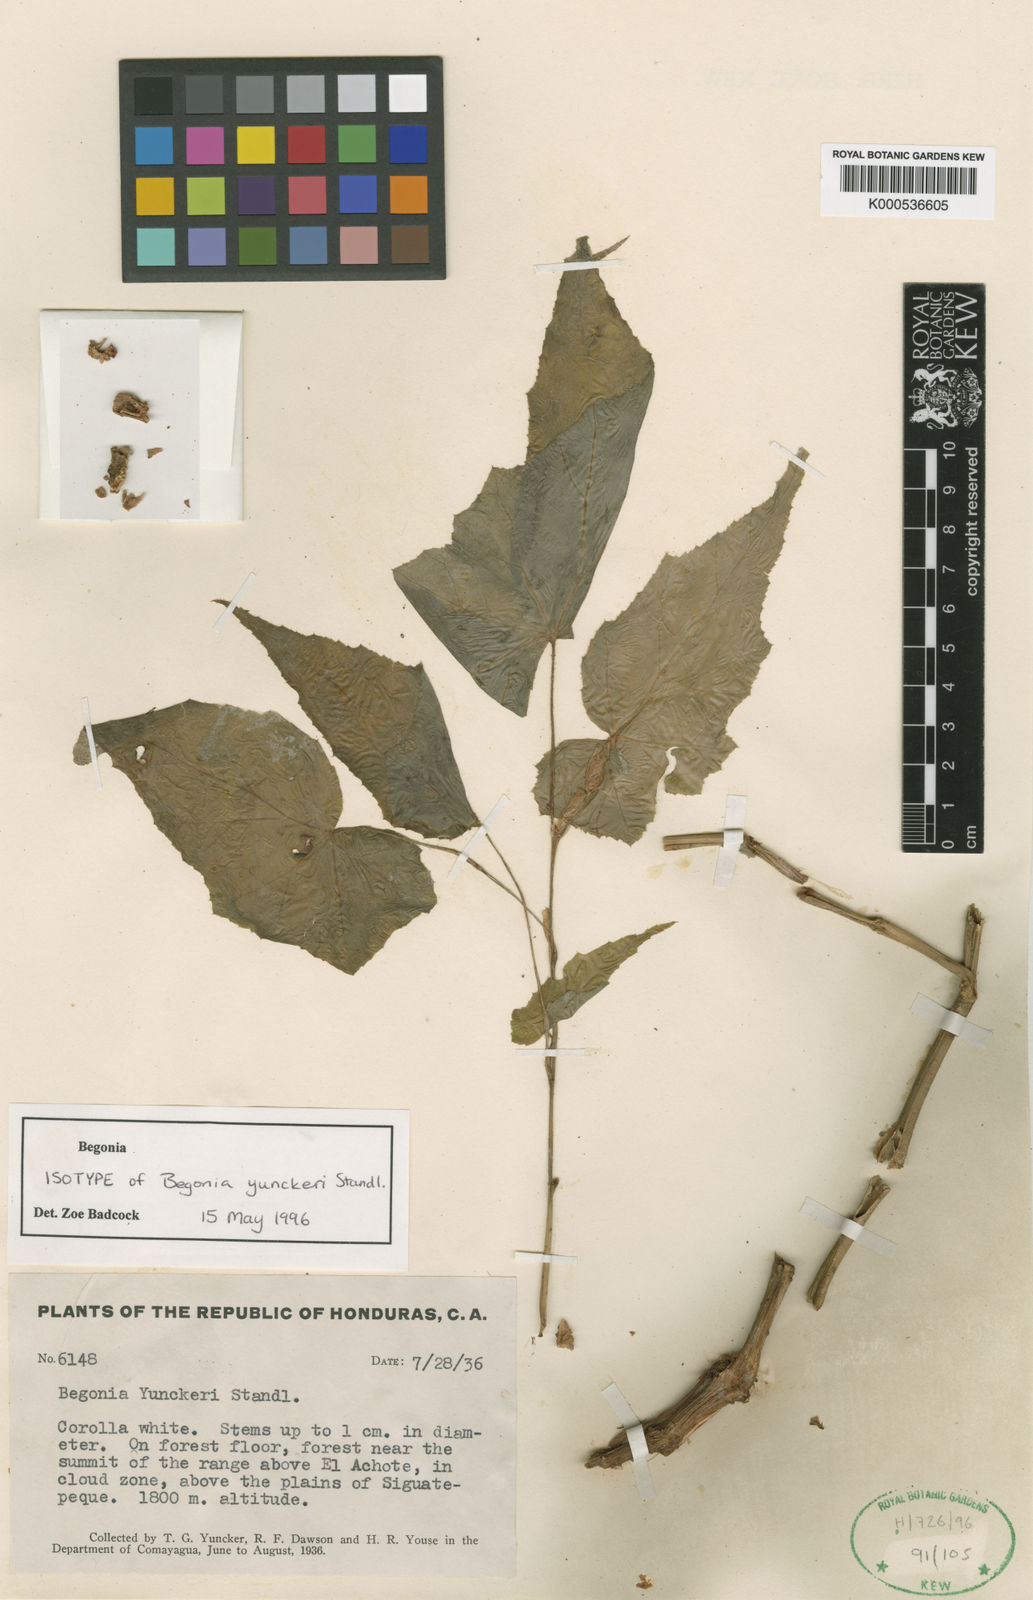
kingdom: Plantae
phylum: Tracheophyta
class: Magnoliopsida
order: Cucurbitales
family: Begoniaceae
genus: Begonia
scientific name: Begonia yunckeri
